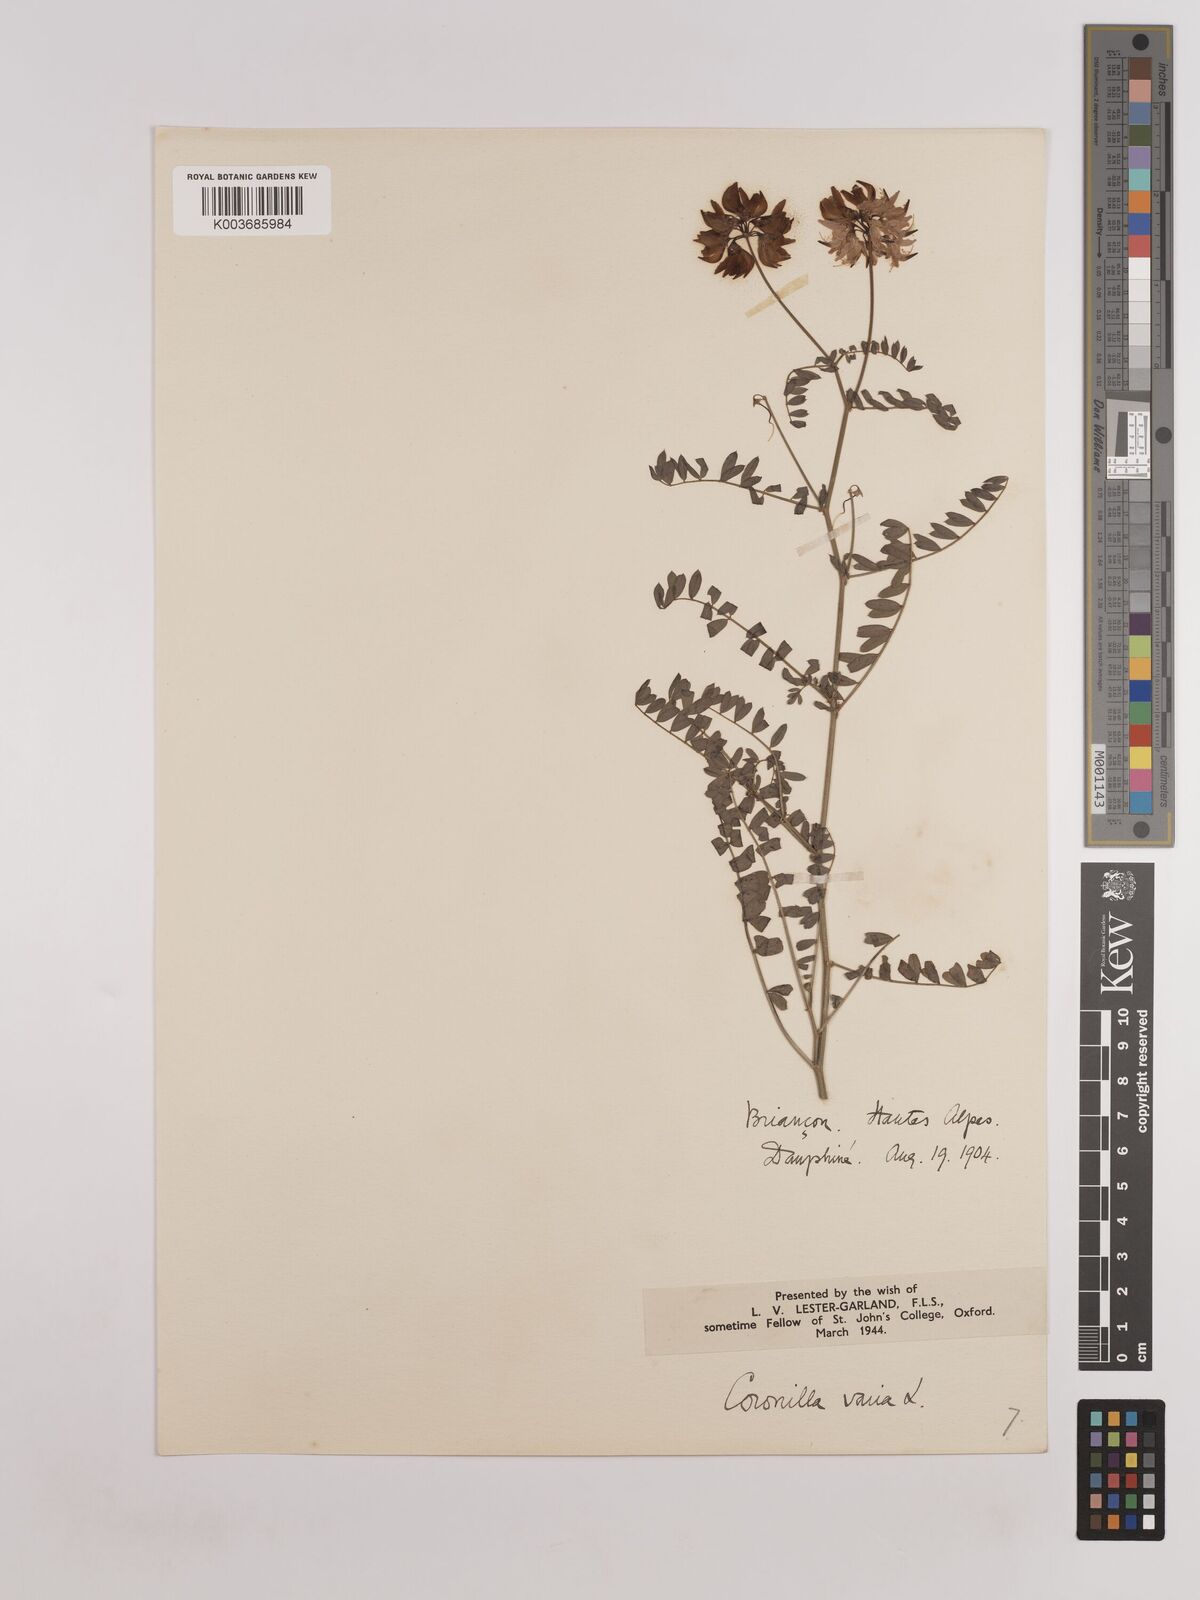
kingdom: Plantae
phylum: Tracheophyta
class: Magnoliopsida
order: Fabales
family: Fabaceae
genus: Coronilla
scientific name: Coronilla varia
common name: Crownvetch
